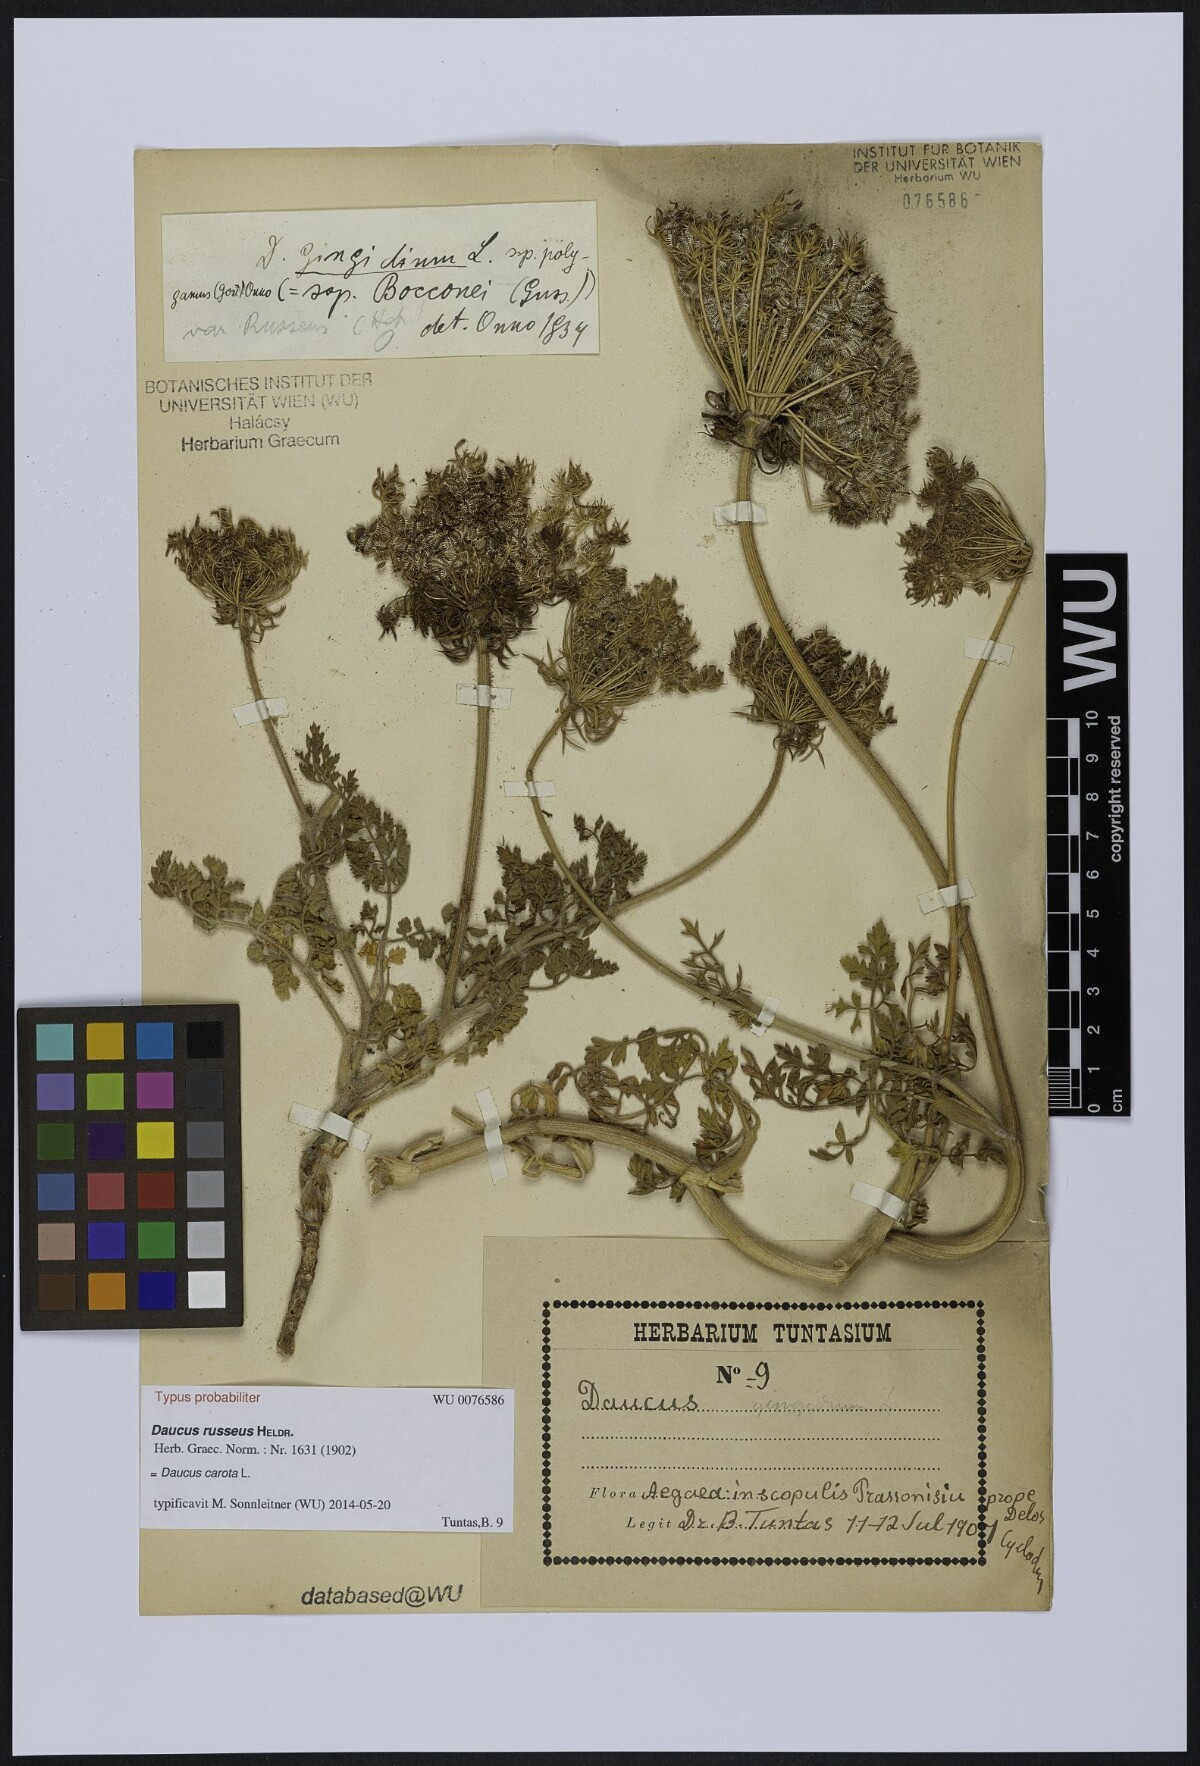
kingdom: Plantae
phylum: Tracheophyta
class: Magnoliopsida
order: Apiales
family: Apiaceae
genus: Daucus
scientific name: Daucus carota
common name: Wild carrot
